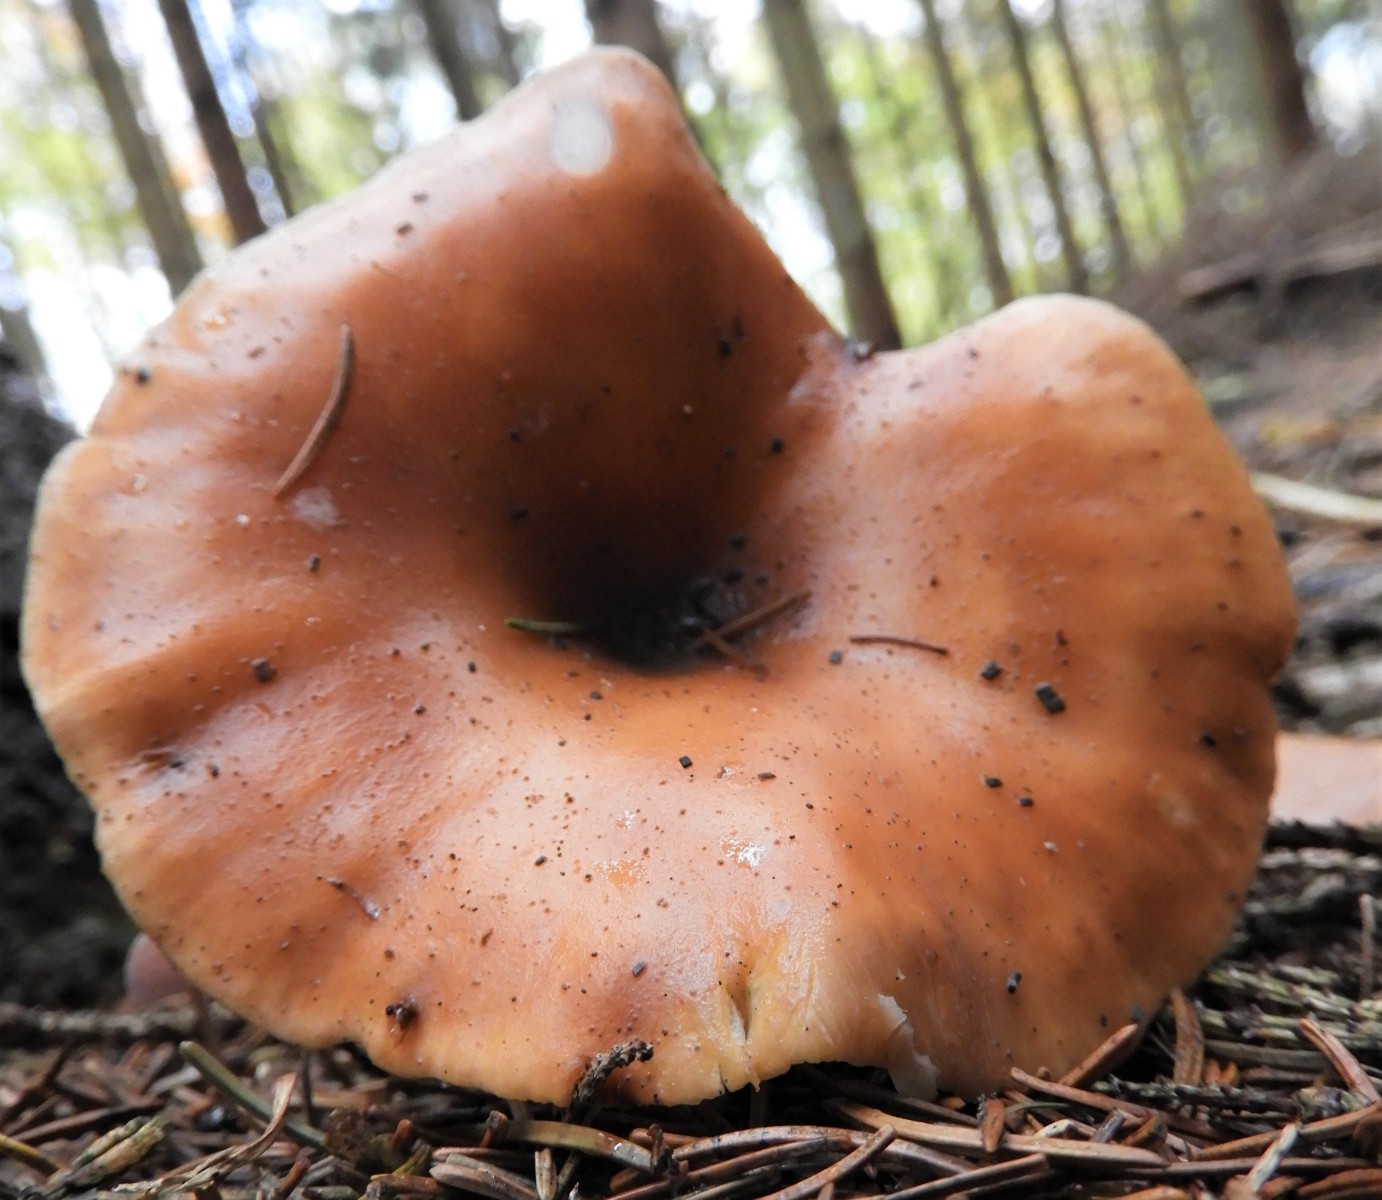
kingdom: Fungi
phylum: Basidiomycota
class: Agaricomycetes
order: Agaricales
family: Tricholomataceae
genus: Paralepista
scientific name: Paralepista flaccida
